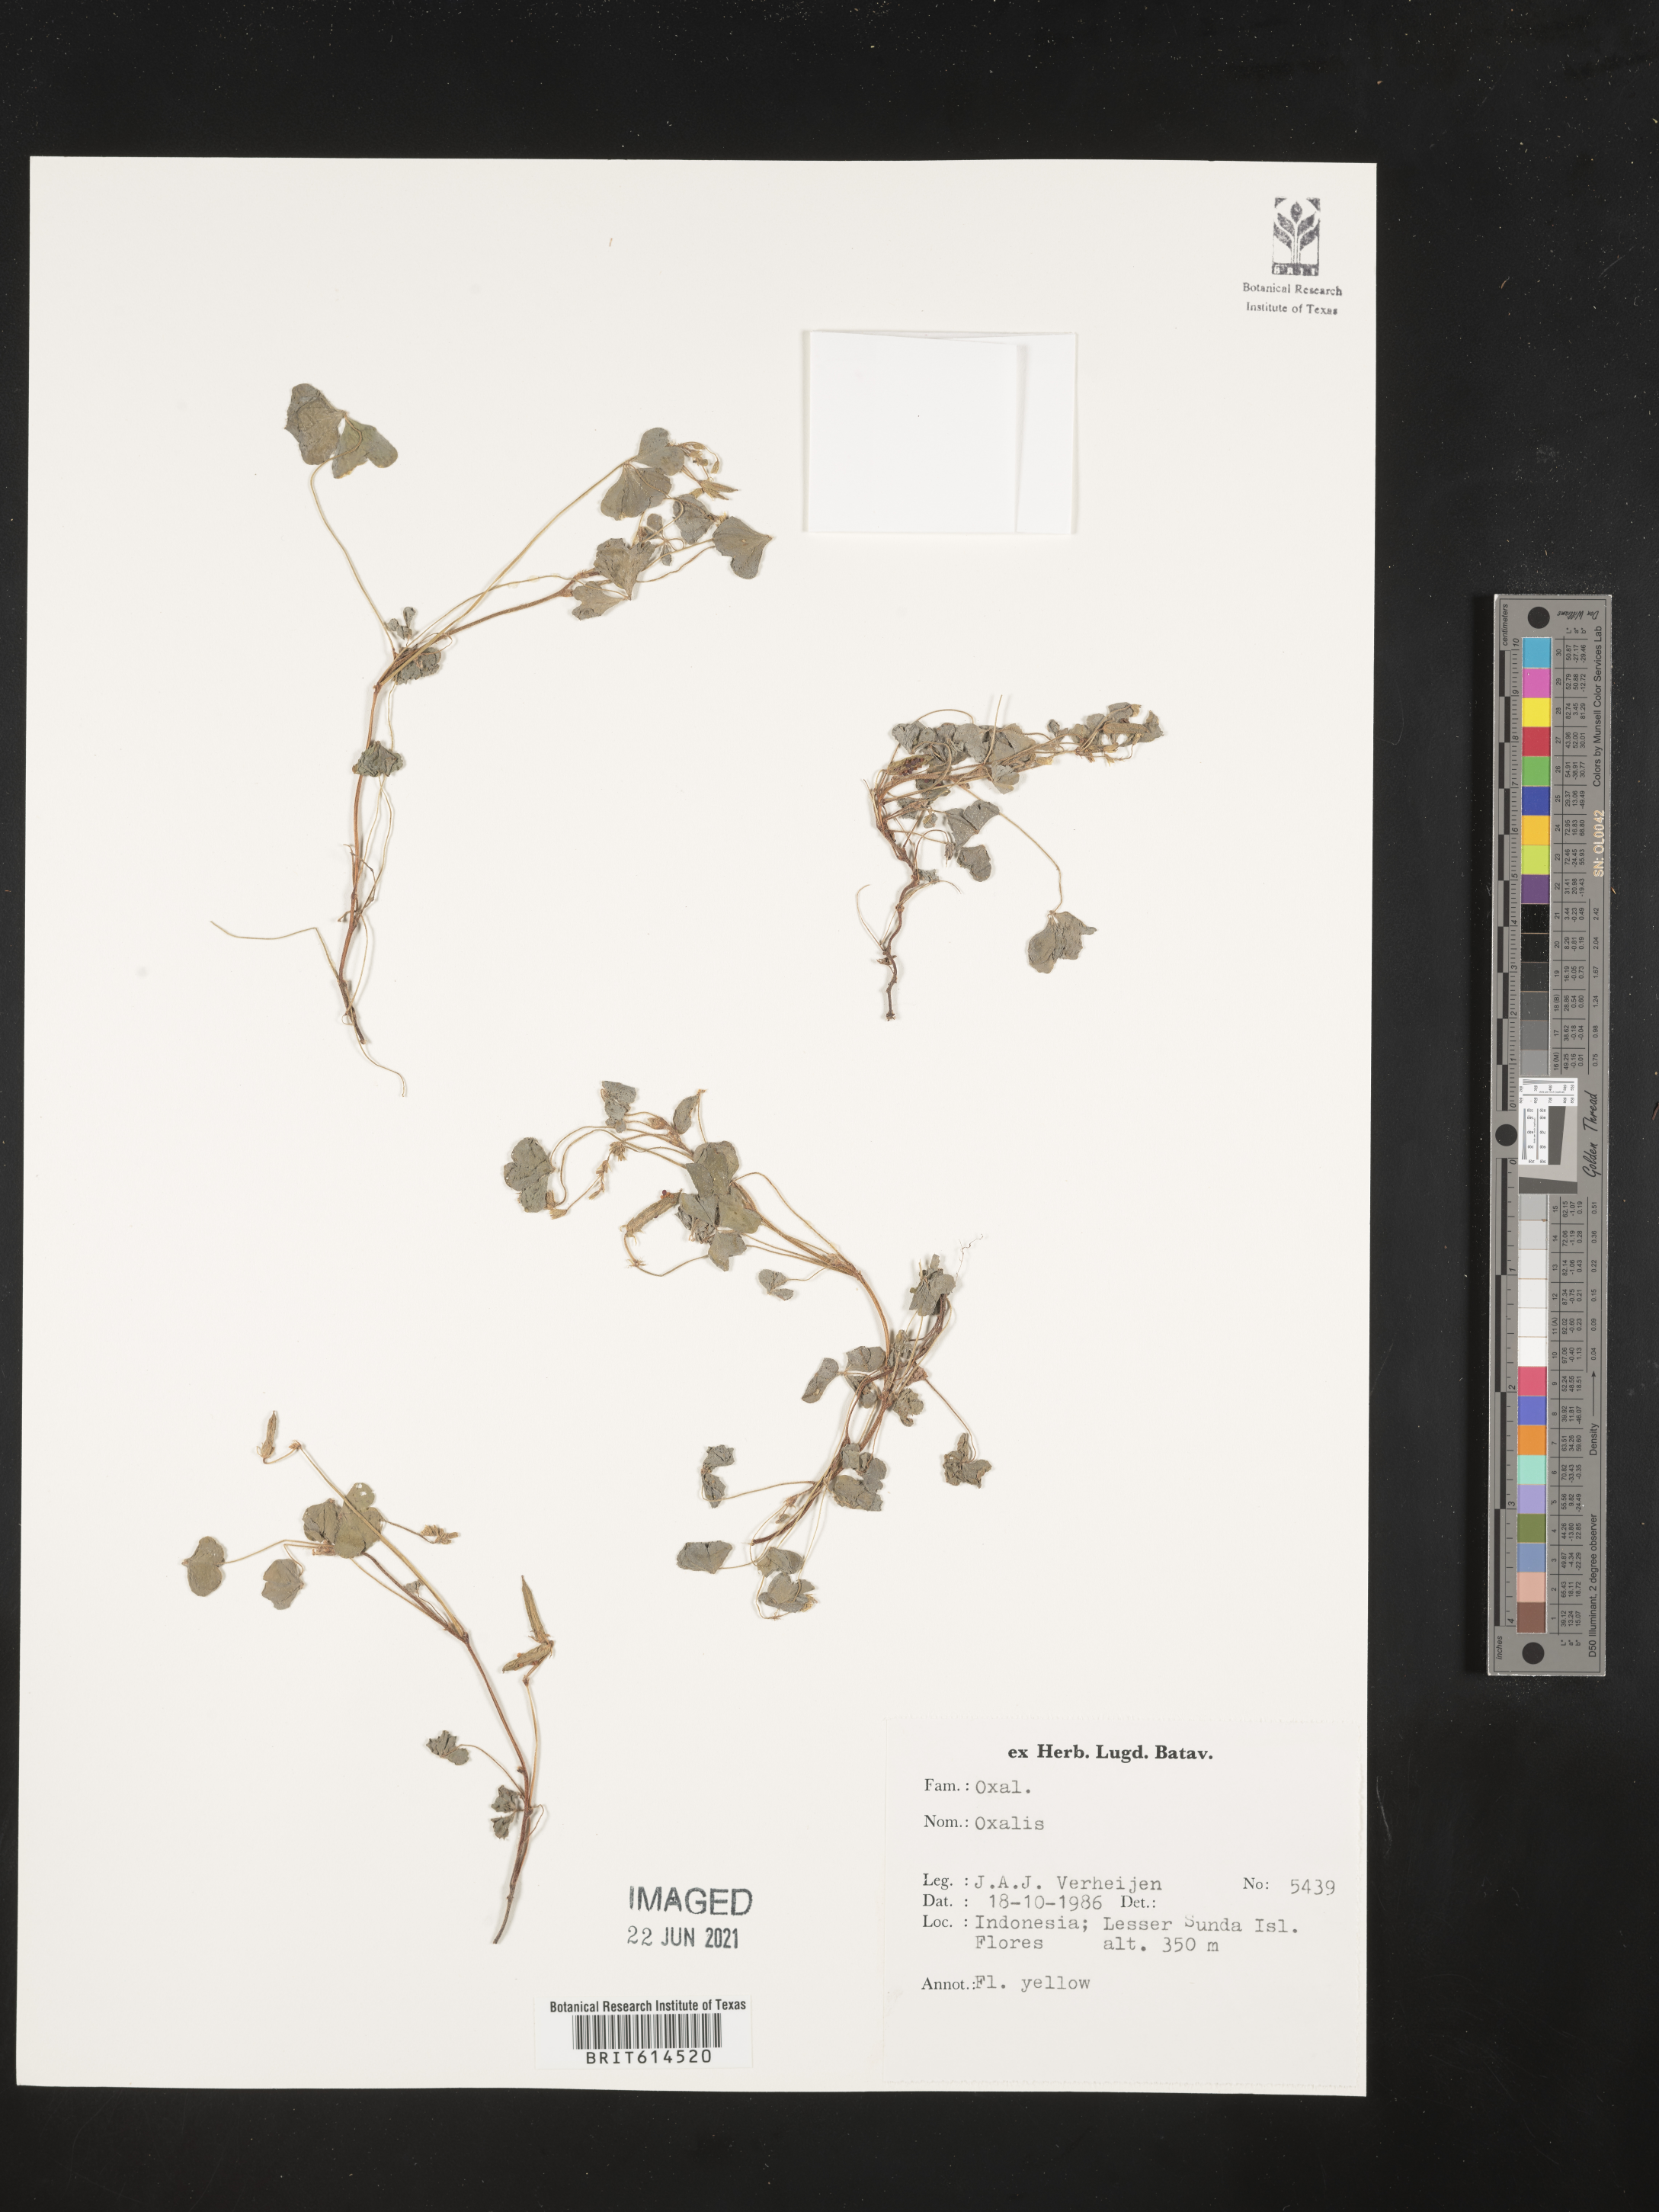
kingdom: Plantae
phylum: Tracheophyta
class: Magnoliopsida
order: Oxalidales
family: Oxalidaceae
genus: Oxalis
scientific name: Oxalis
